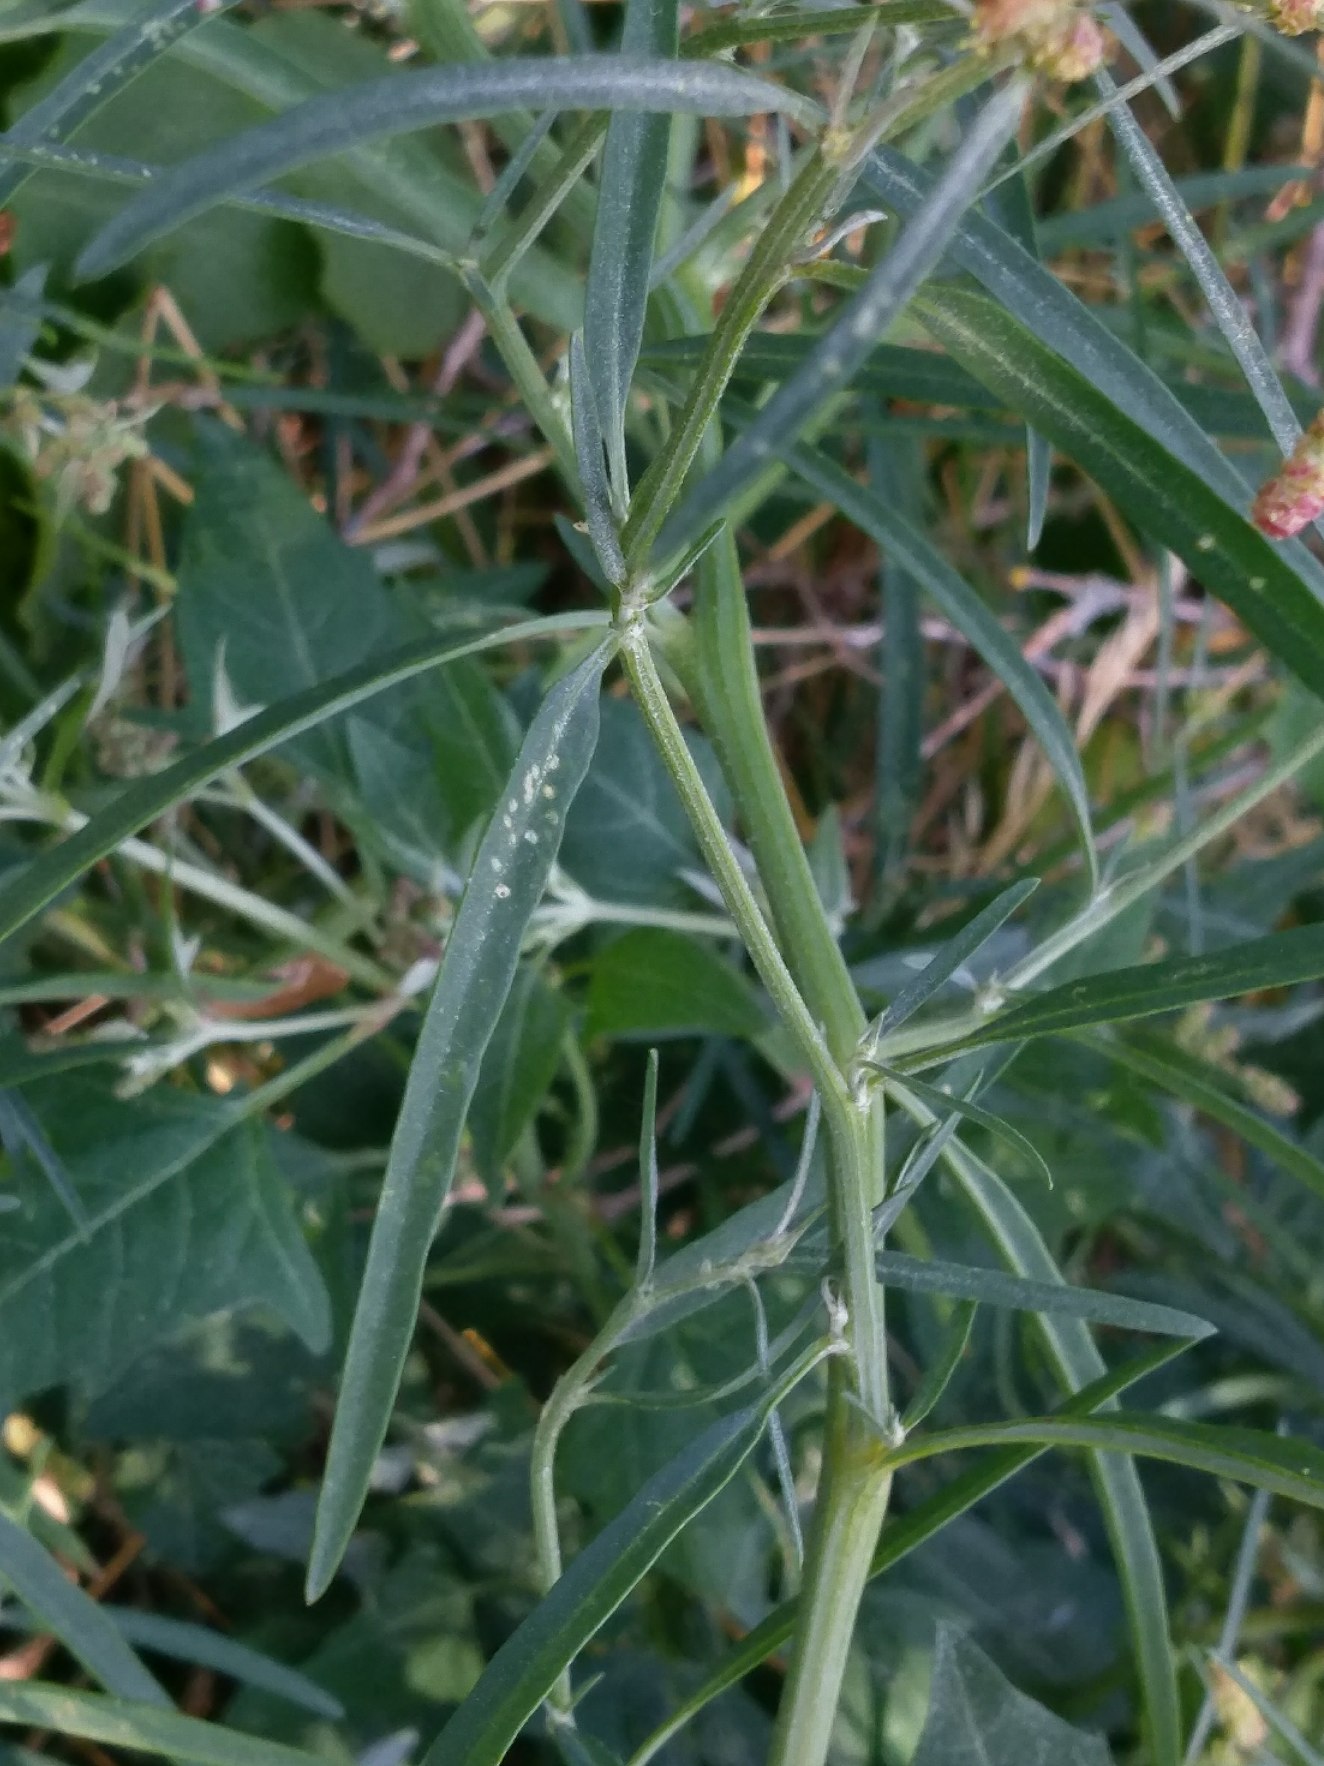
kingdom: Plantae
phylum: Tracheophyta
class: Magnoliopsida
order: Caryophyllales
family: Amaranthaceae
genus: Atriplex
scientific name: Atriplex littoralis
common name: Strand-mælde
